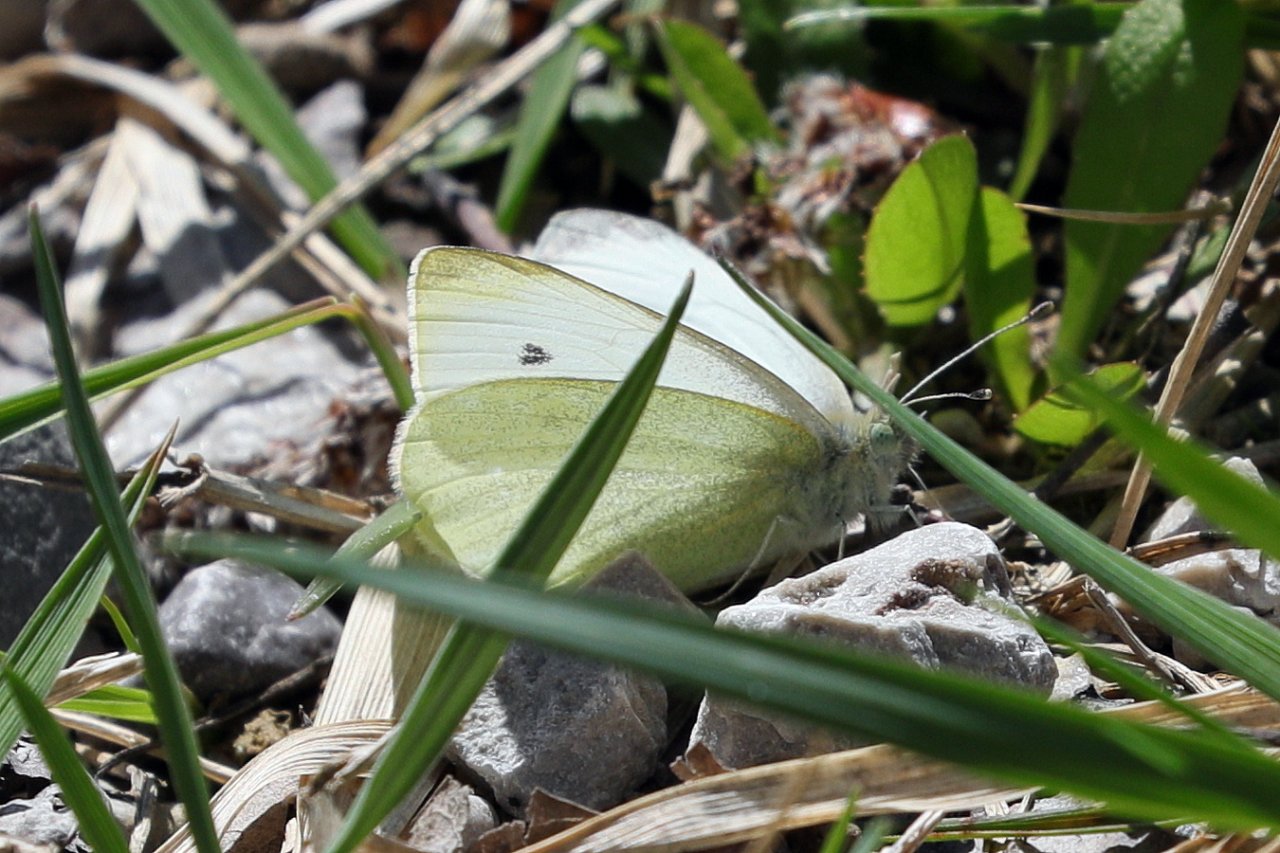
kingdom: Animalia
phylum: Arthropoda
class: Insecta
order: Lepidoptera
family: Pieridae
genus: Pieris
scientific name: Pieris rapae
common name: Cabbage White
